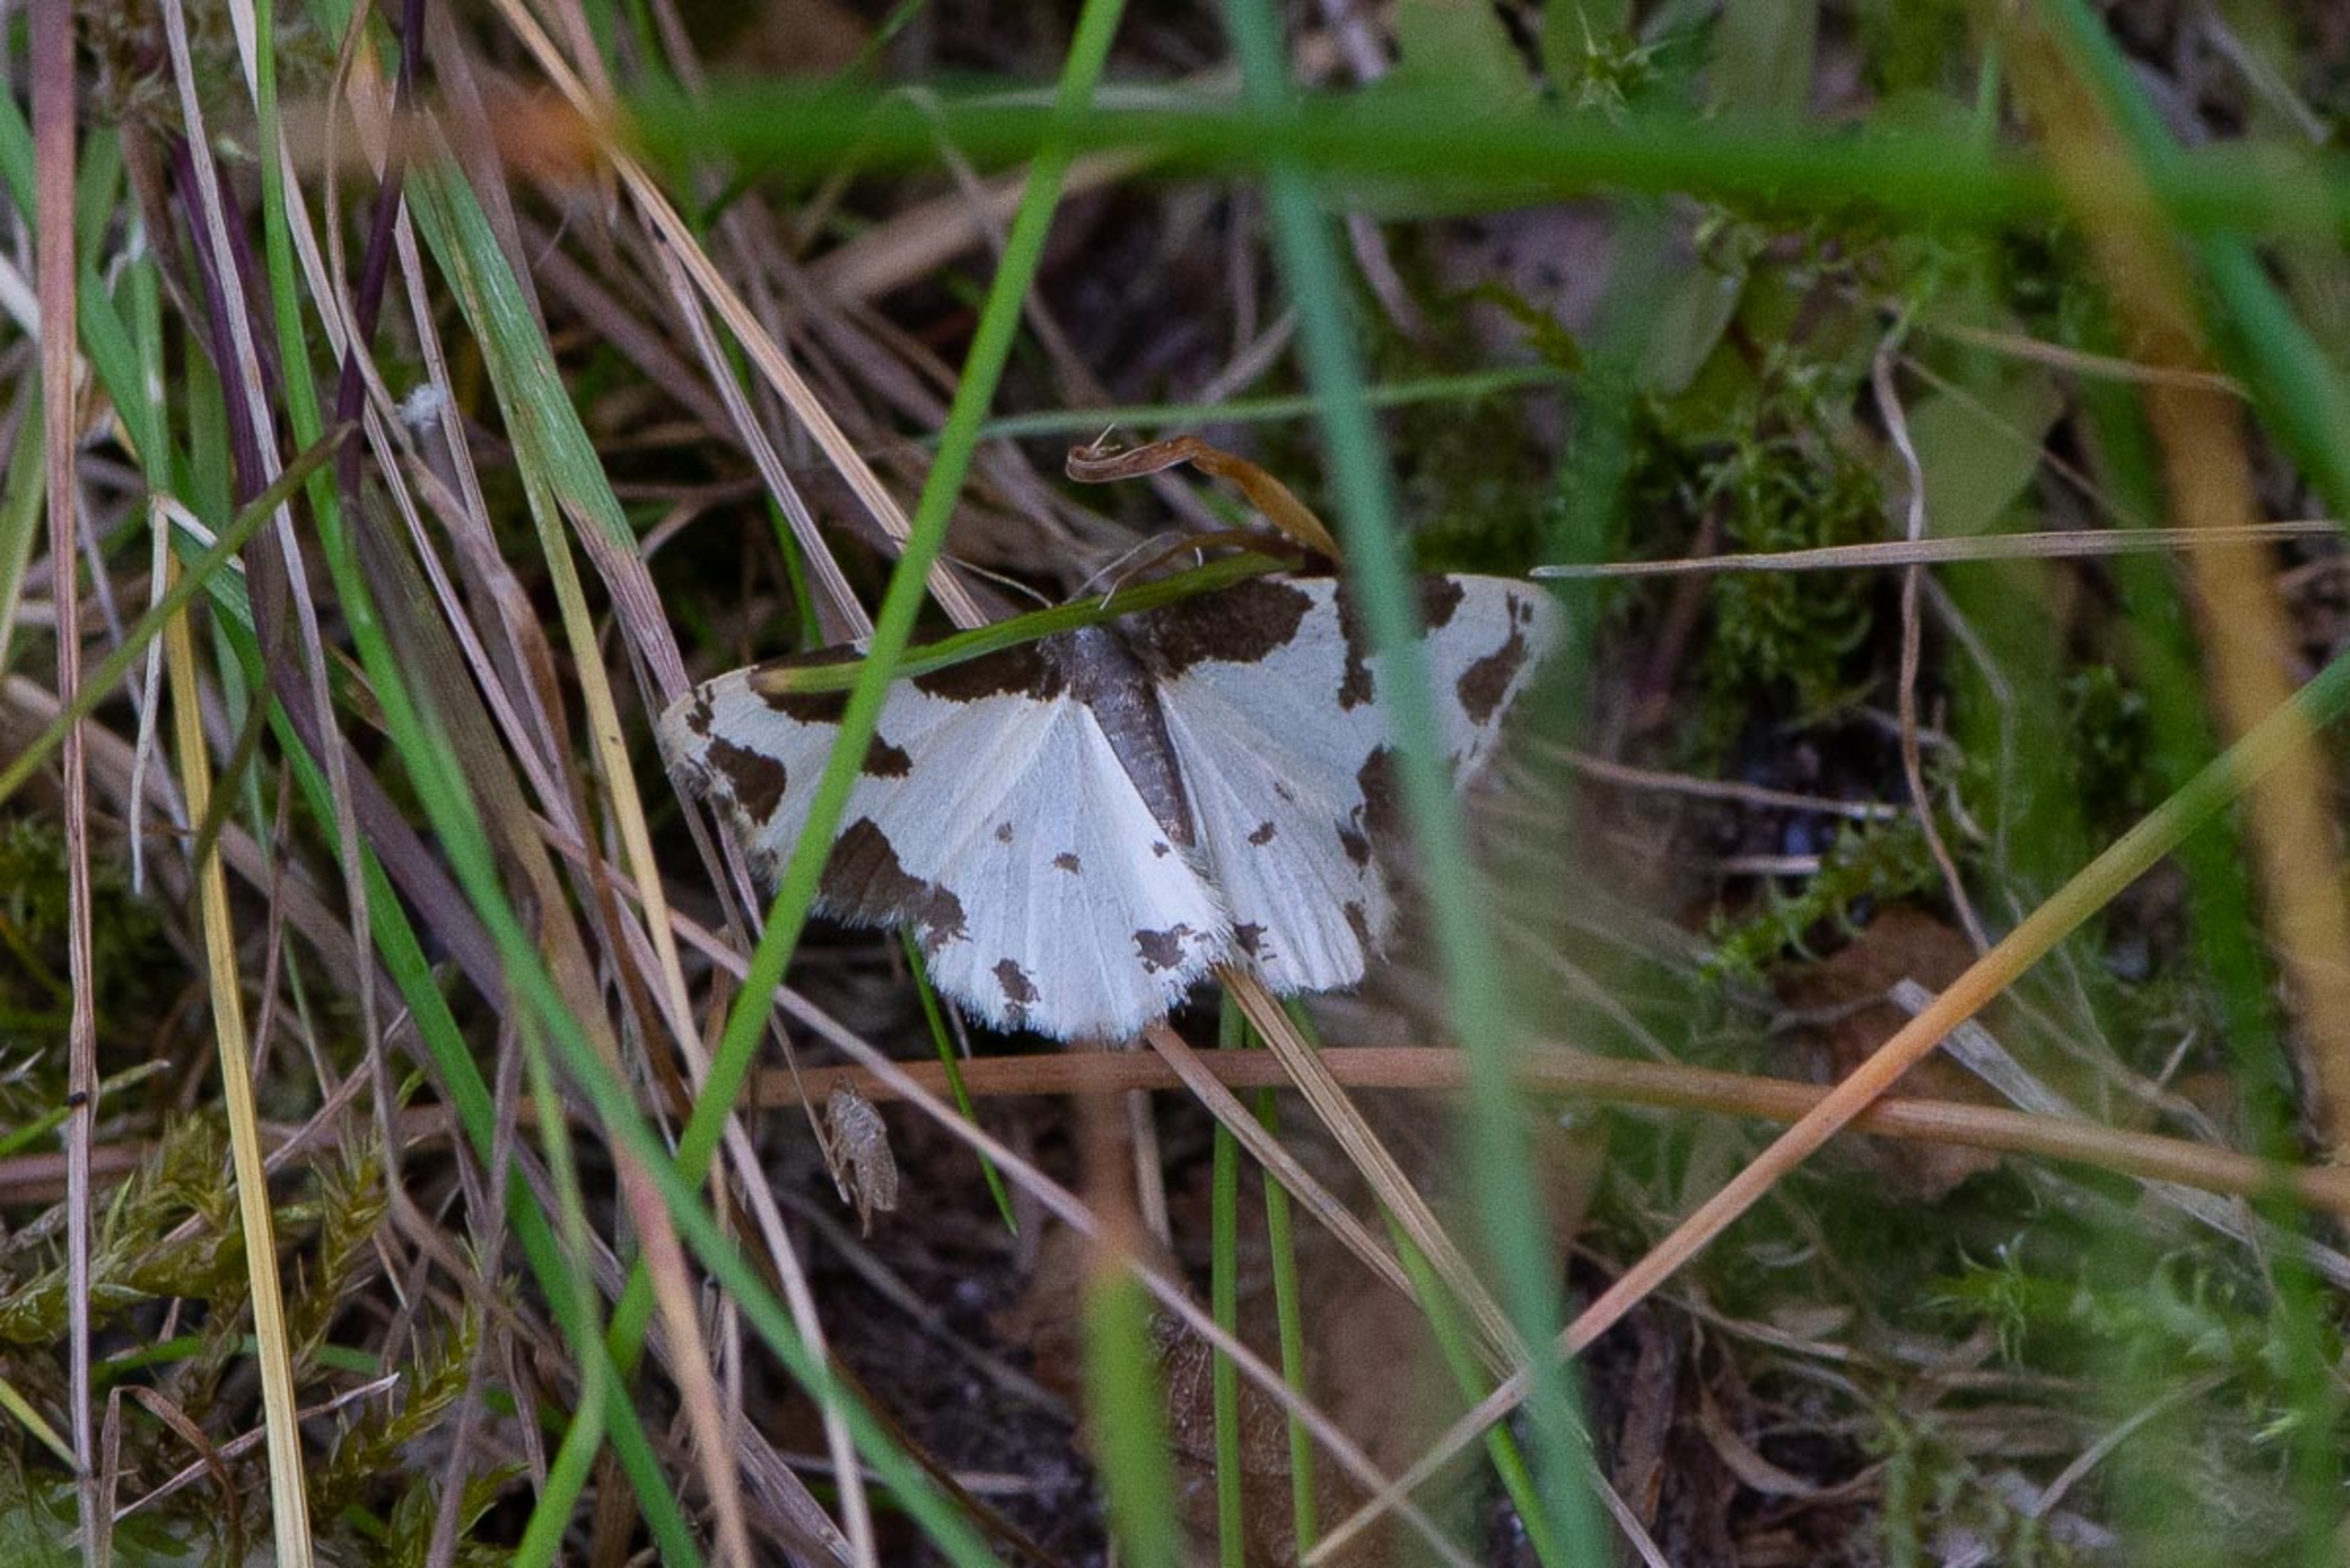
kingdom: Animalia
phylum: Arthropoda
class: Insecta
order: Lepidoptera
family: Geometridae
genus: Lomaspilis
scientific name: Lomaspilis marginata
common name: Sortrandet måler
